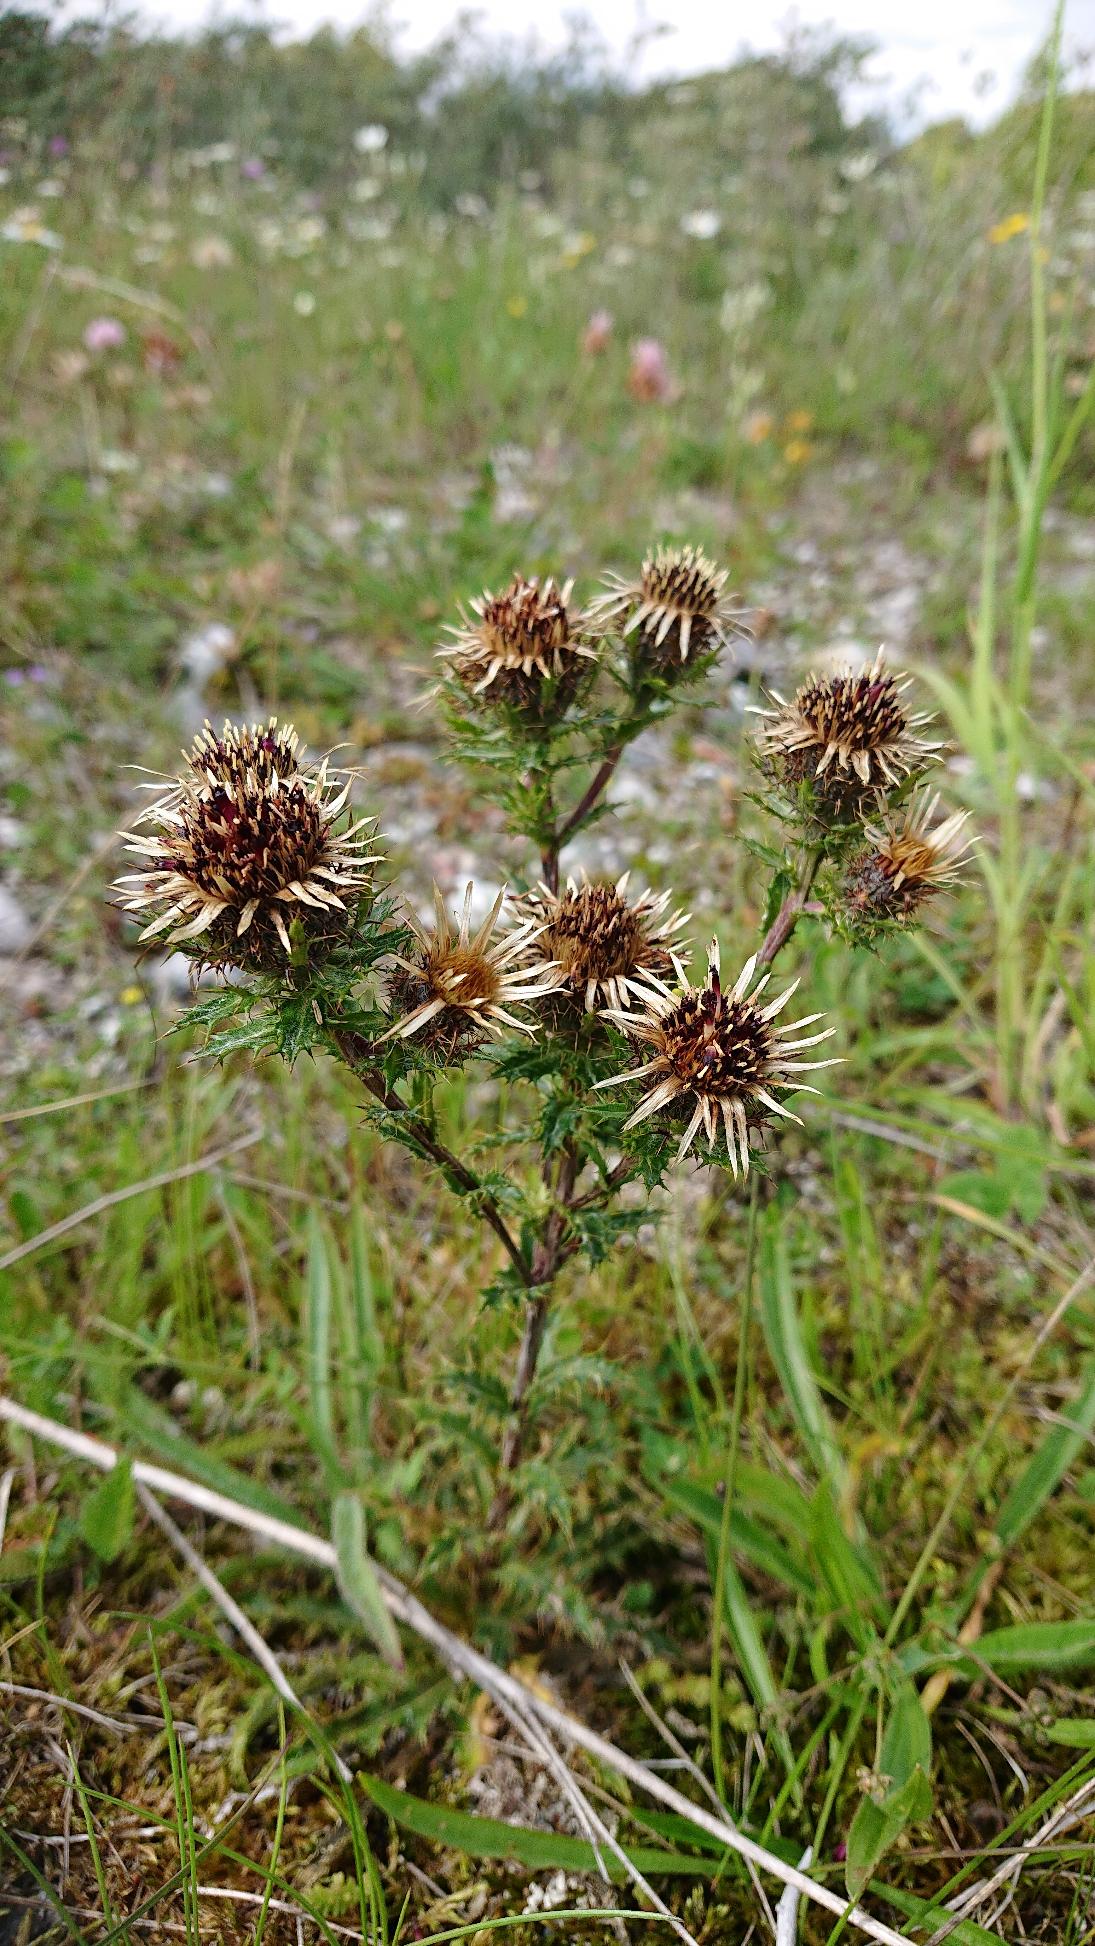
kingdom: Plantae
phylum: Tracheophyta
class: Magnoliopsida
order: Asterales
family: Asteraceae
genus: Carlina
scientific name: Carlina vulgaris
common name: Bakketidsel
